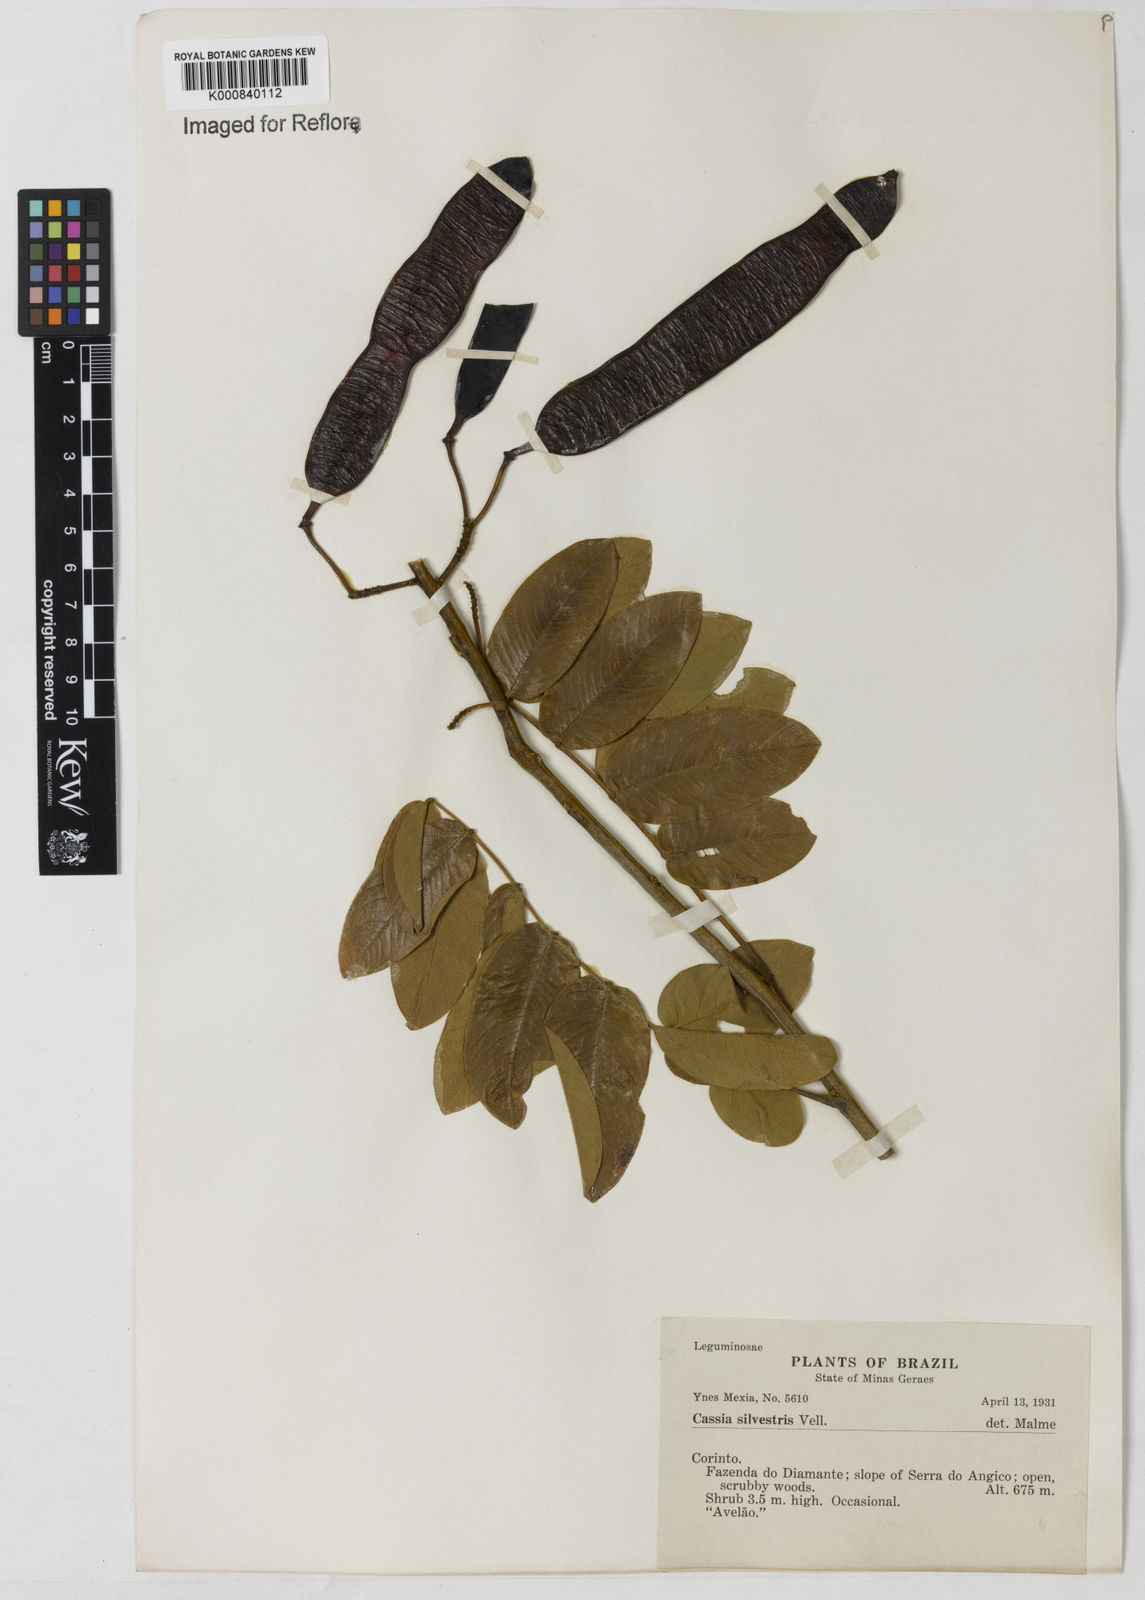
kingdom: Plantae
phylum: Tracheophyta
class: Magnoliopsida
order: Fabales
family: Fabaceae
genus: Senna
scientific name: Senna silvestris
